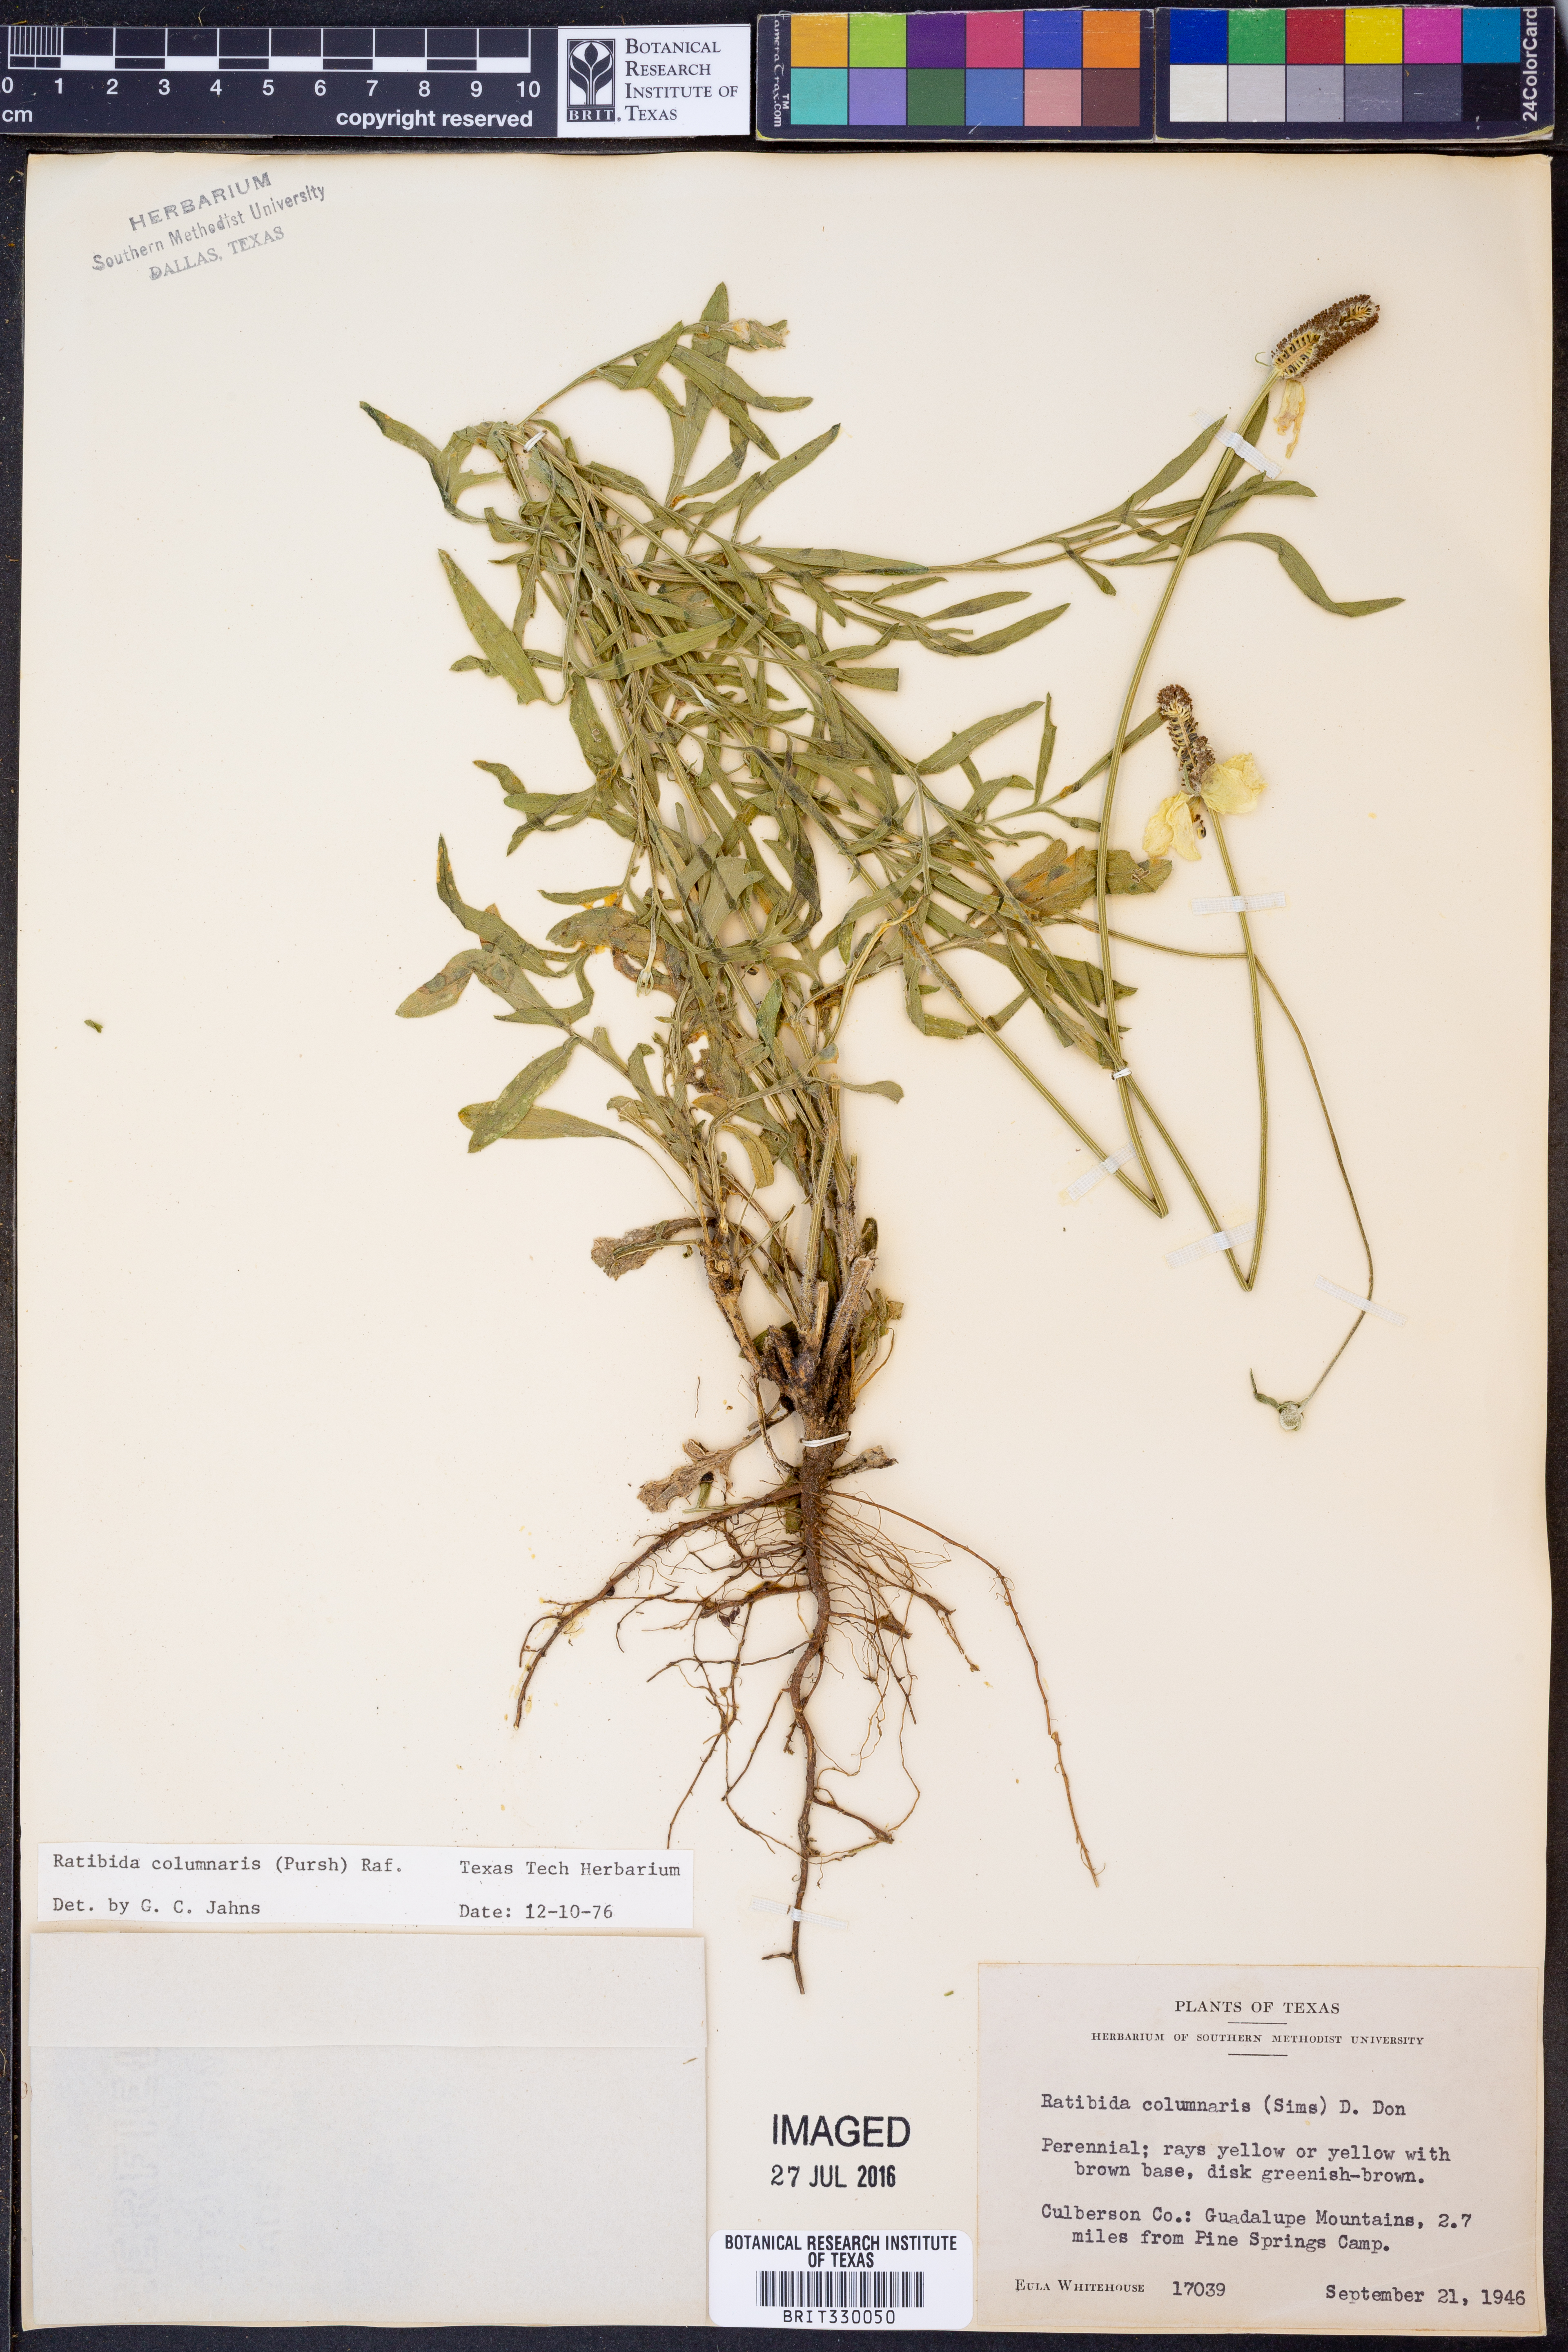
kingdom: Plantae
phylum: Tracheophyta
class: Magnoliopsida
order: Asterales
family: Asteraceae
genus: Ratibida
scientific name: Ratibida columnifera
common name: Prairie coneflower
